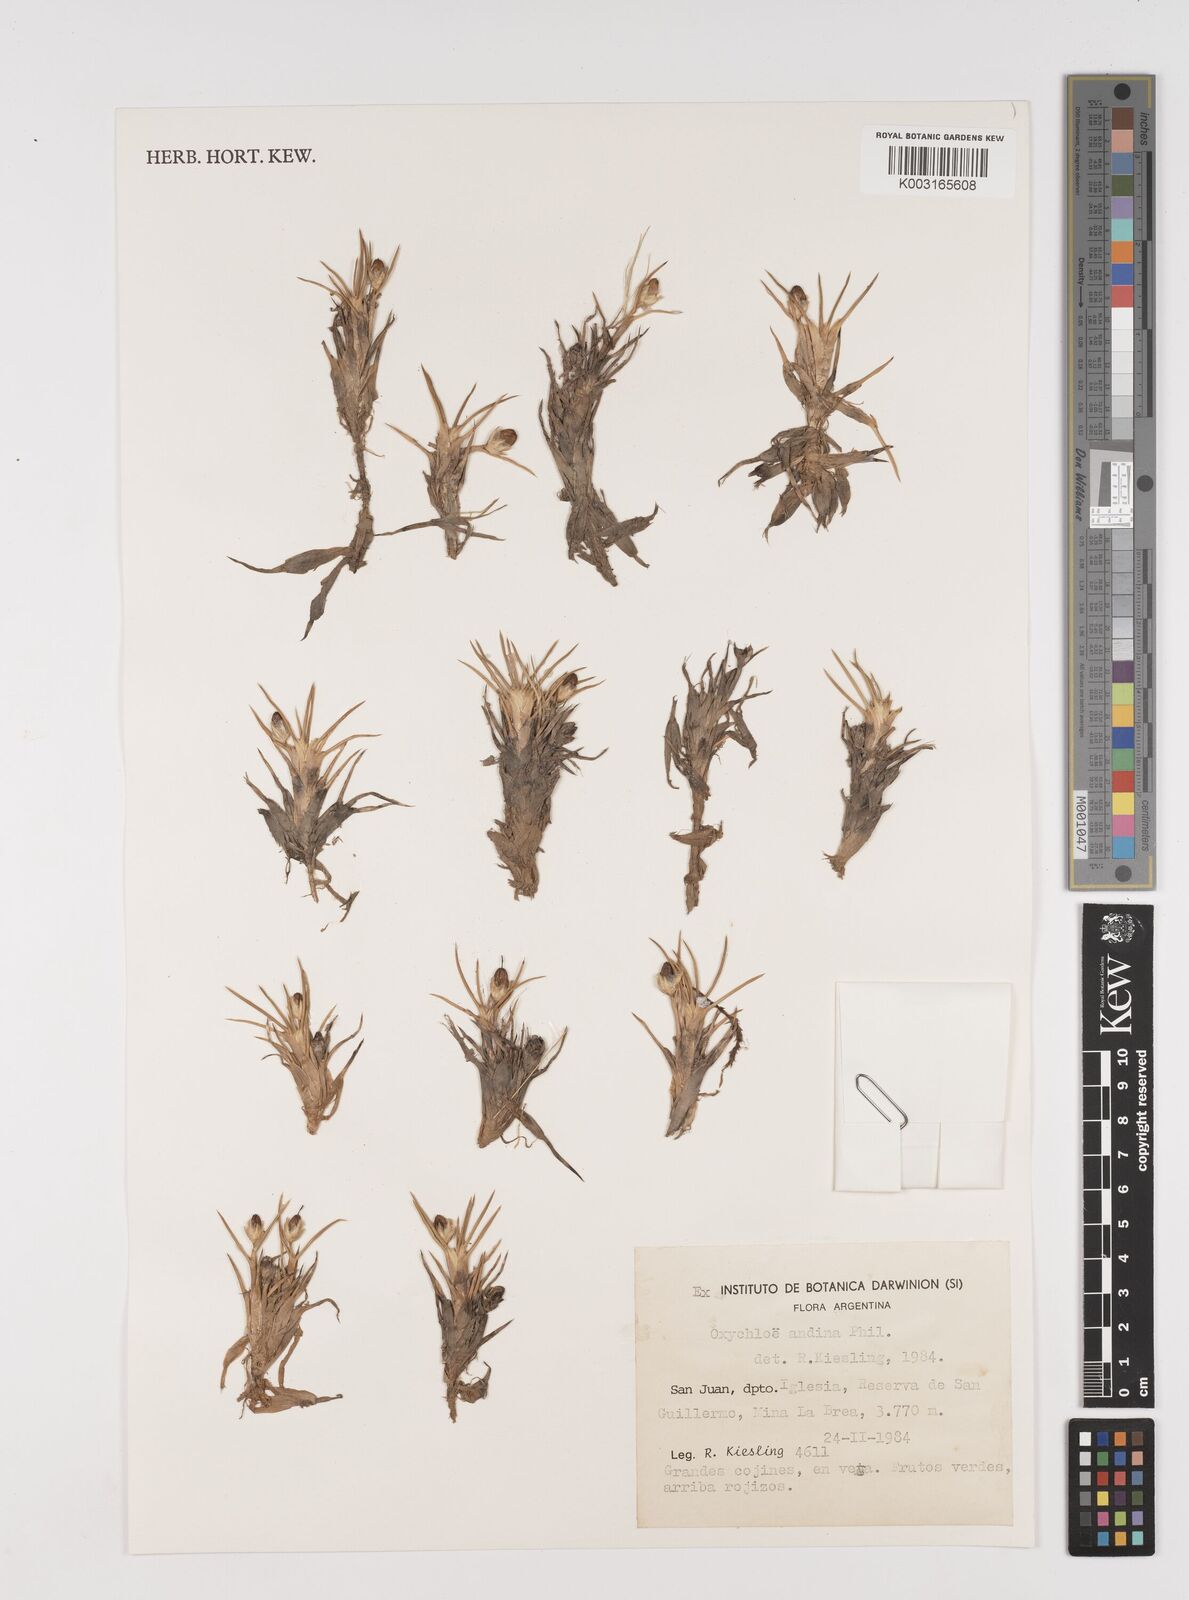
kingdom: Plantae
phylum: Tracheophyta
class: Liliopsida
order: Poales
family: Juncaceae
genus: Oxychloe
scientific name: Oxychloe andina
